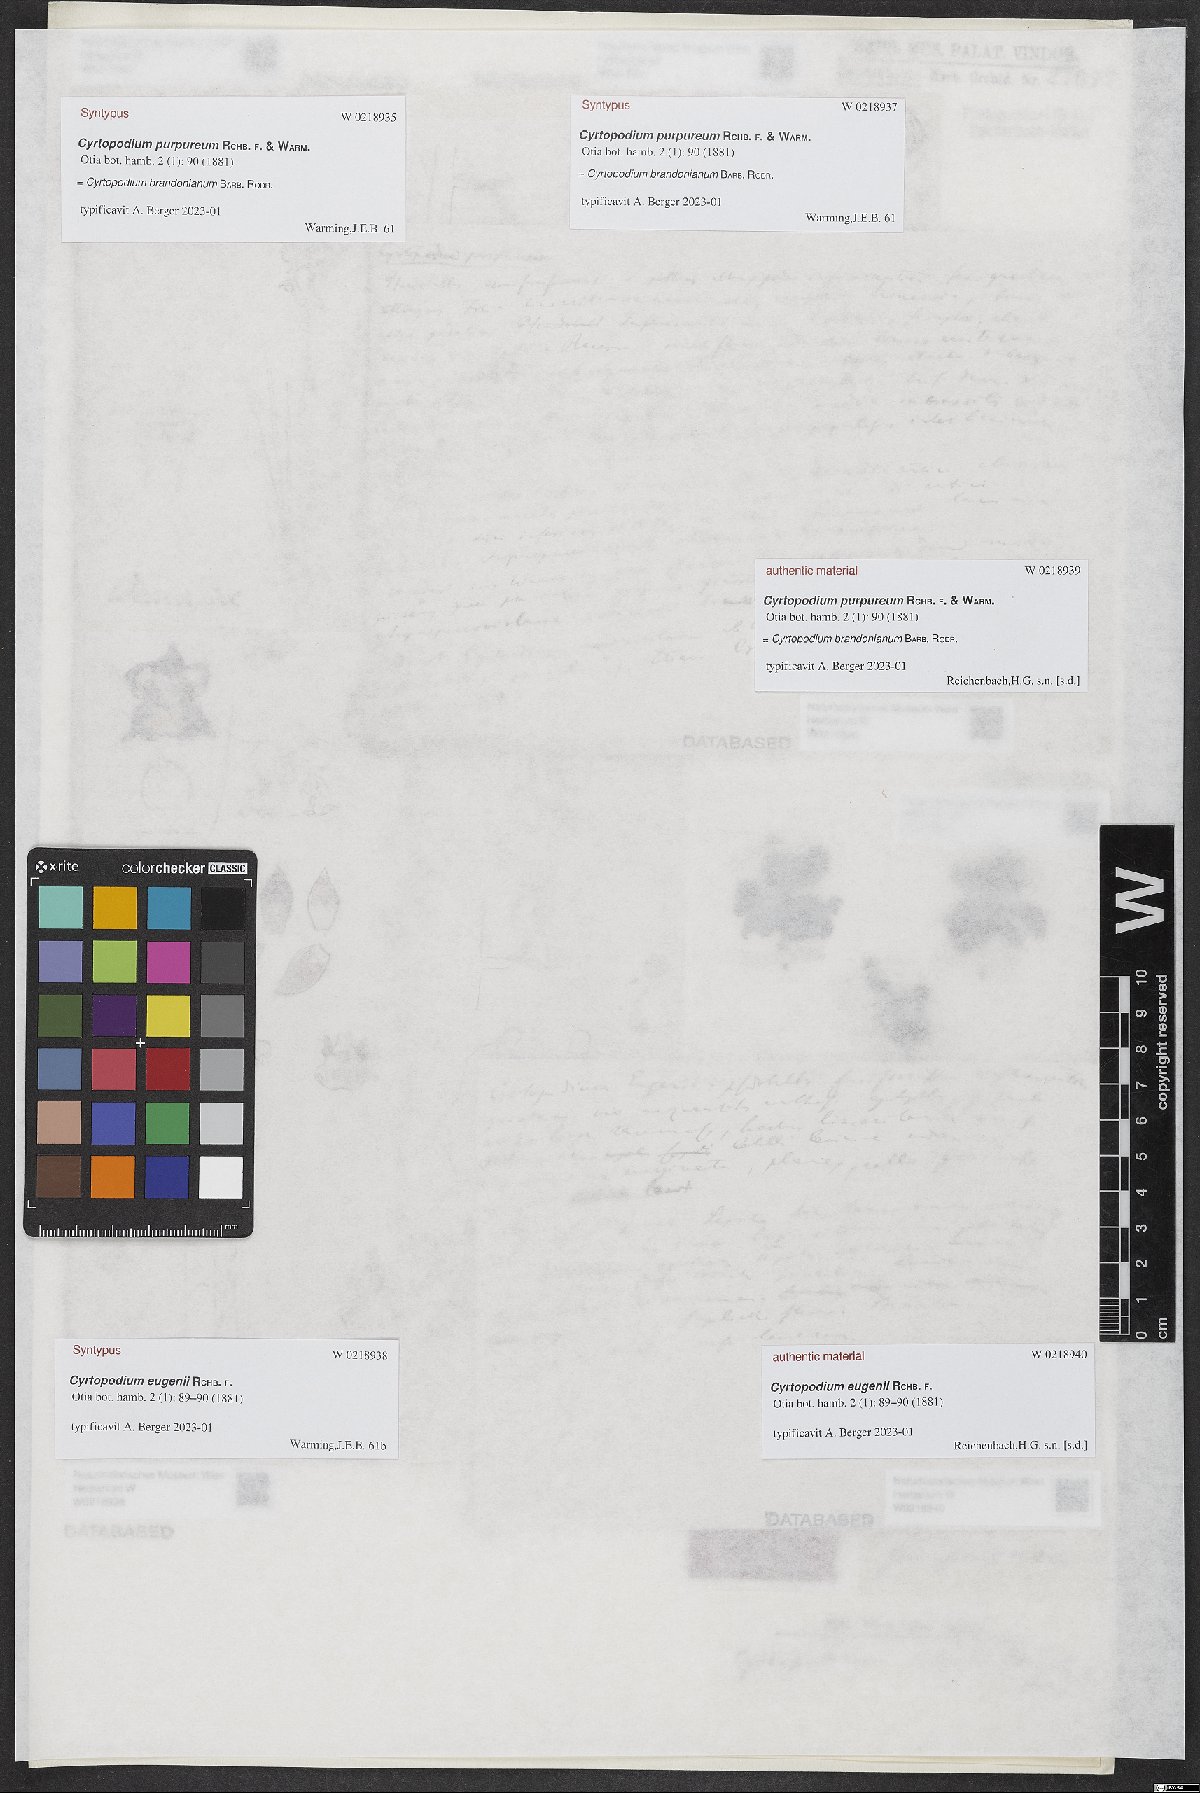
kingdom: Plantae
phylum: Tracheophyta
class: Liliopsida
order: Asparagales
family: Orchidaceae
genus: Cyrtopodium
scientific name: Cyrtopodium brandonianum
